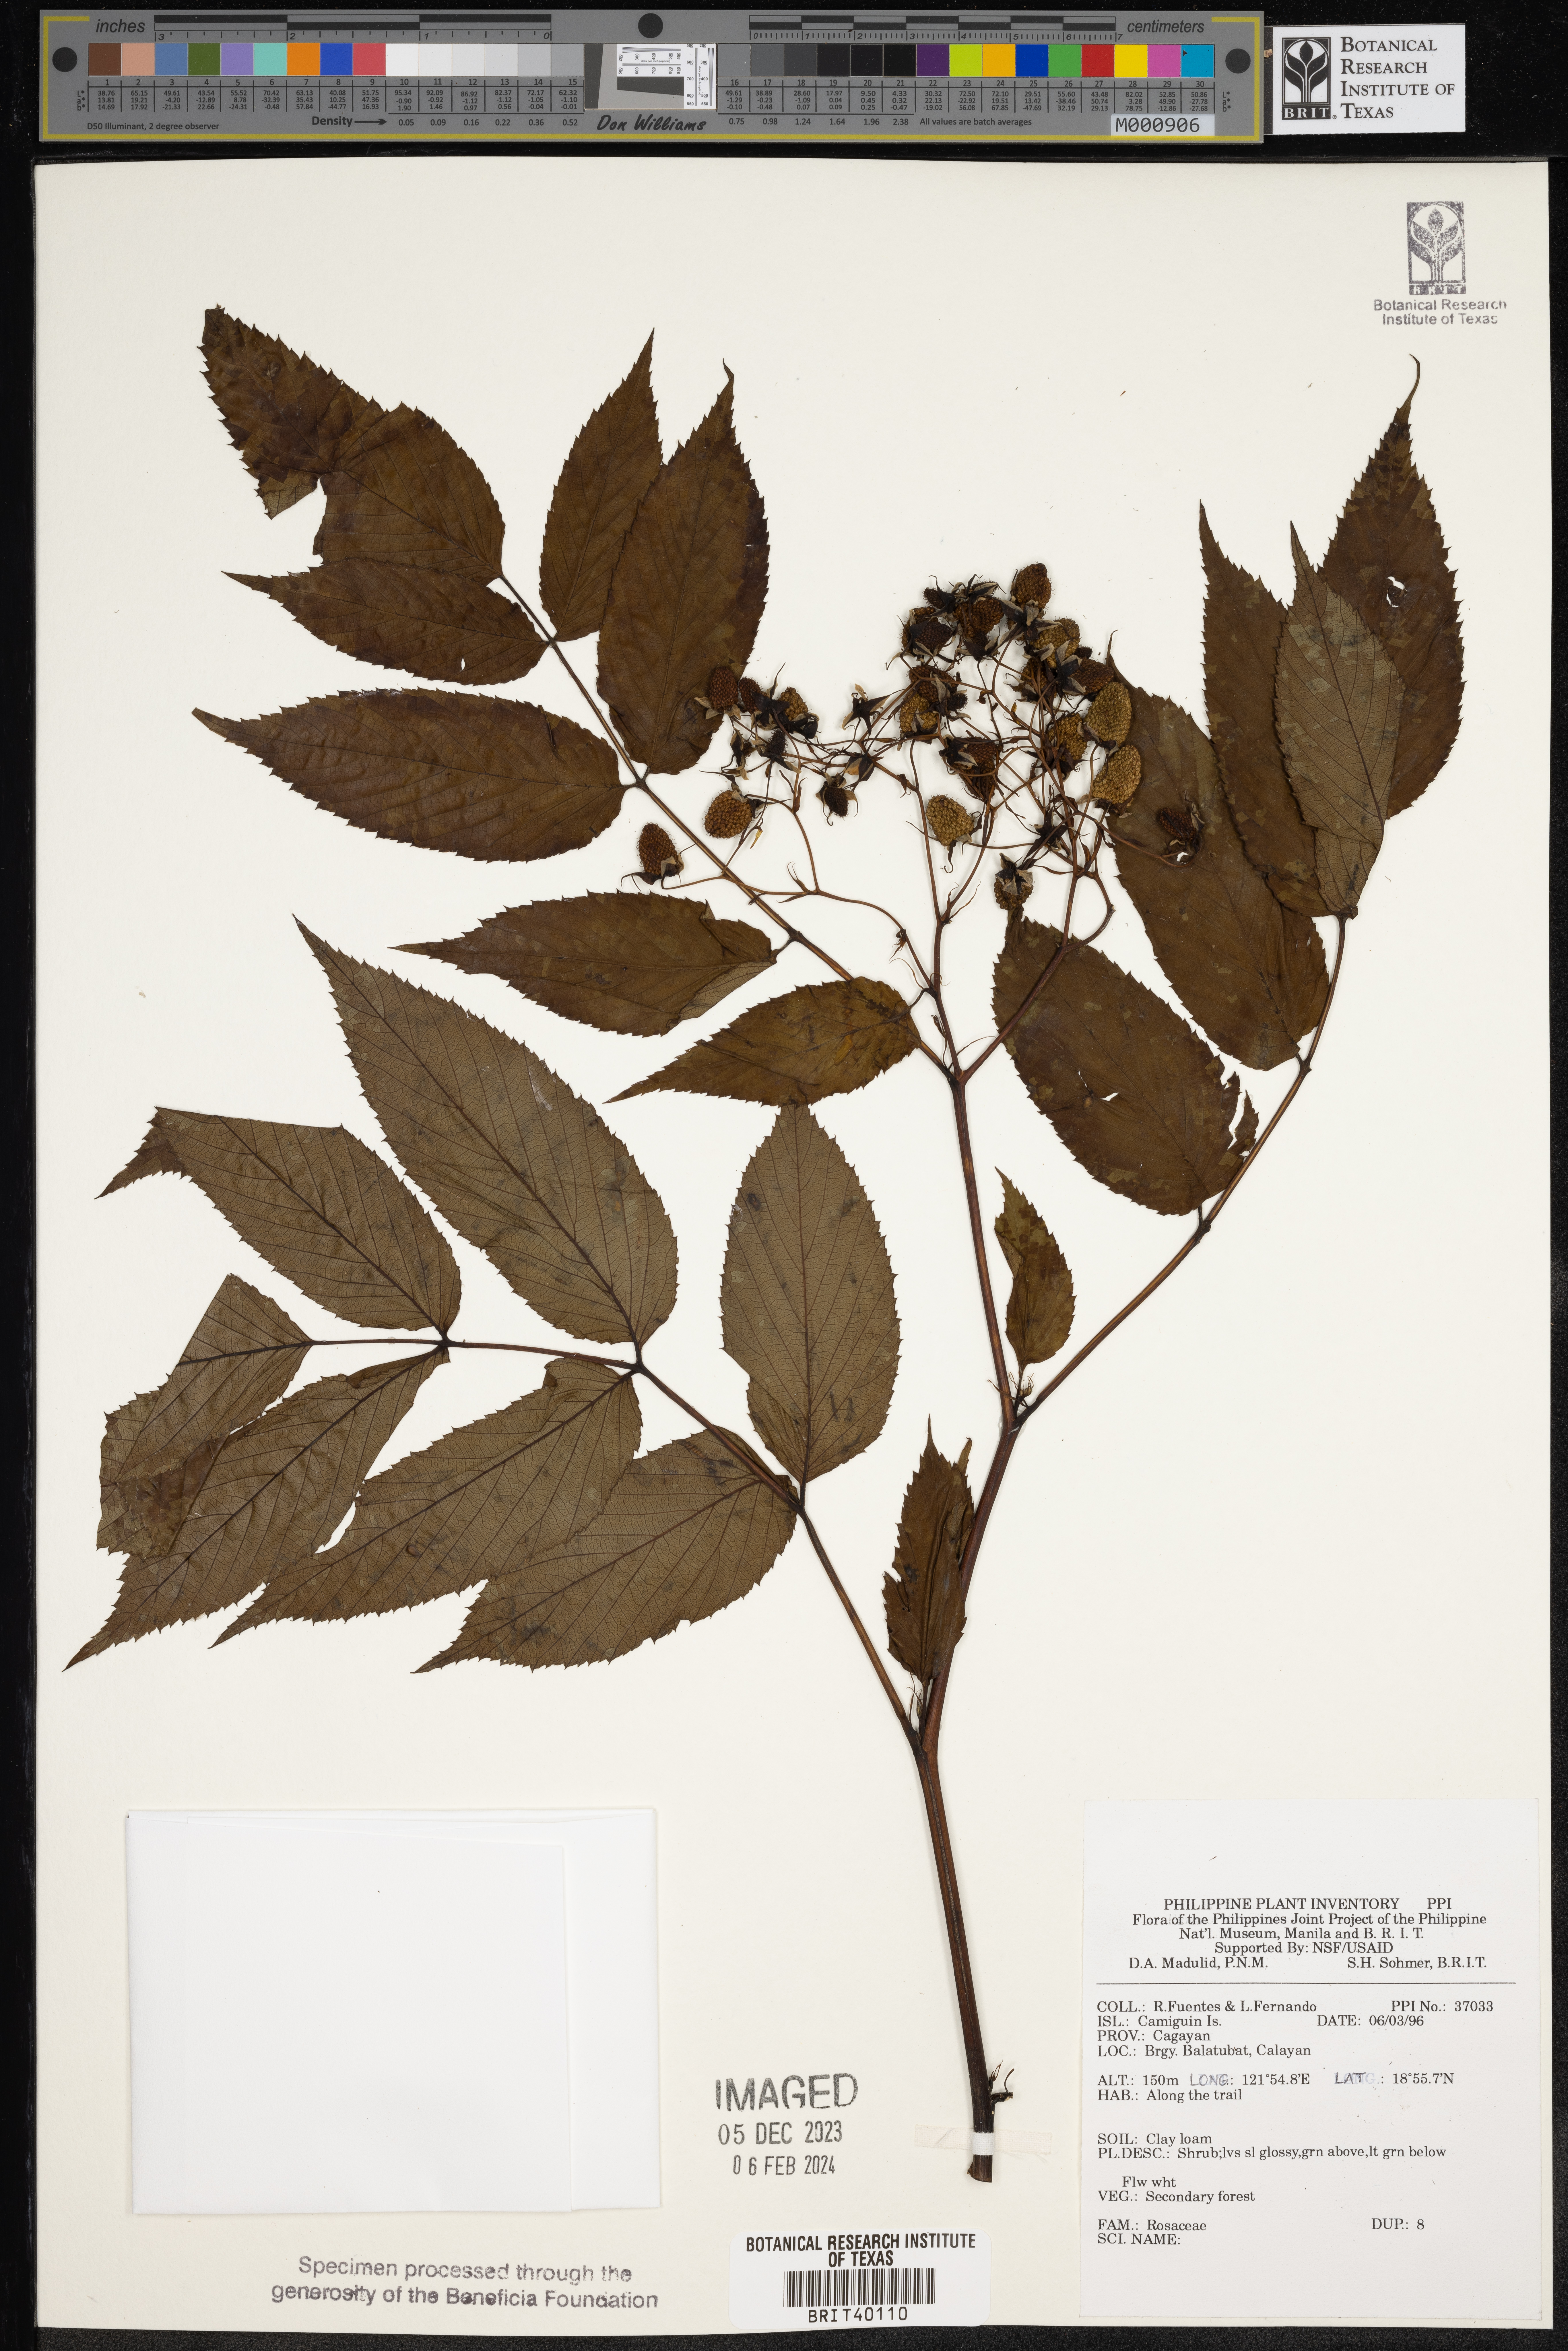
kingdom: Plantae
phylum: Tracheophyta
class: Magnoliopsida
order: Rosales
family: Rosaceae
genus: Rubus
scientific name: Rubus
